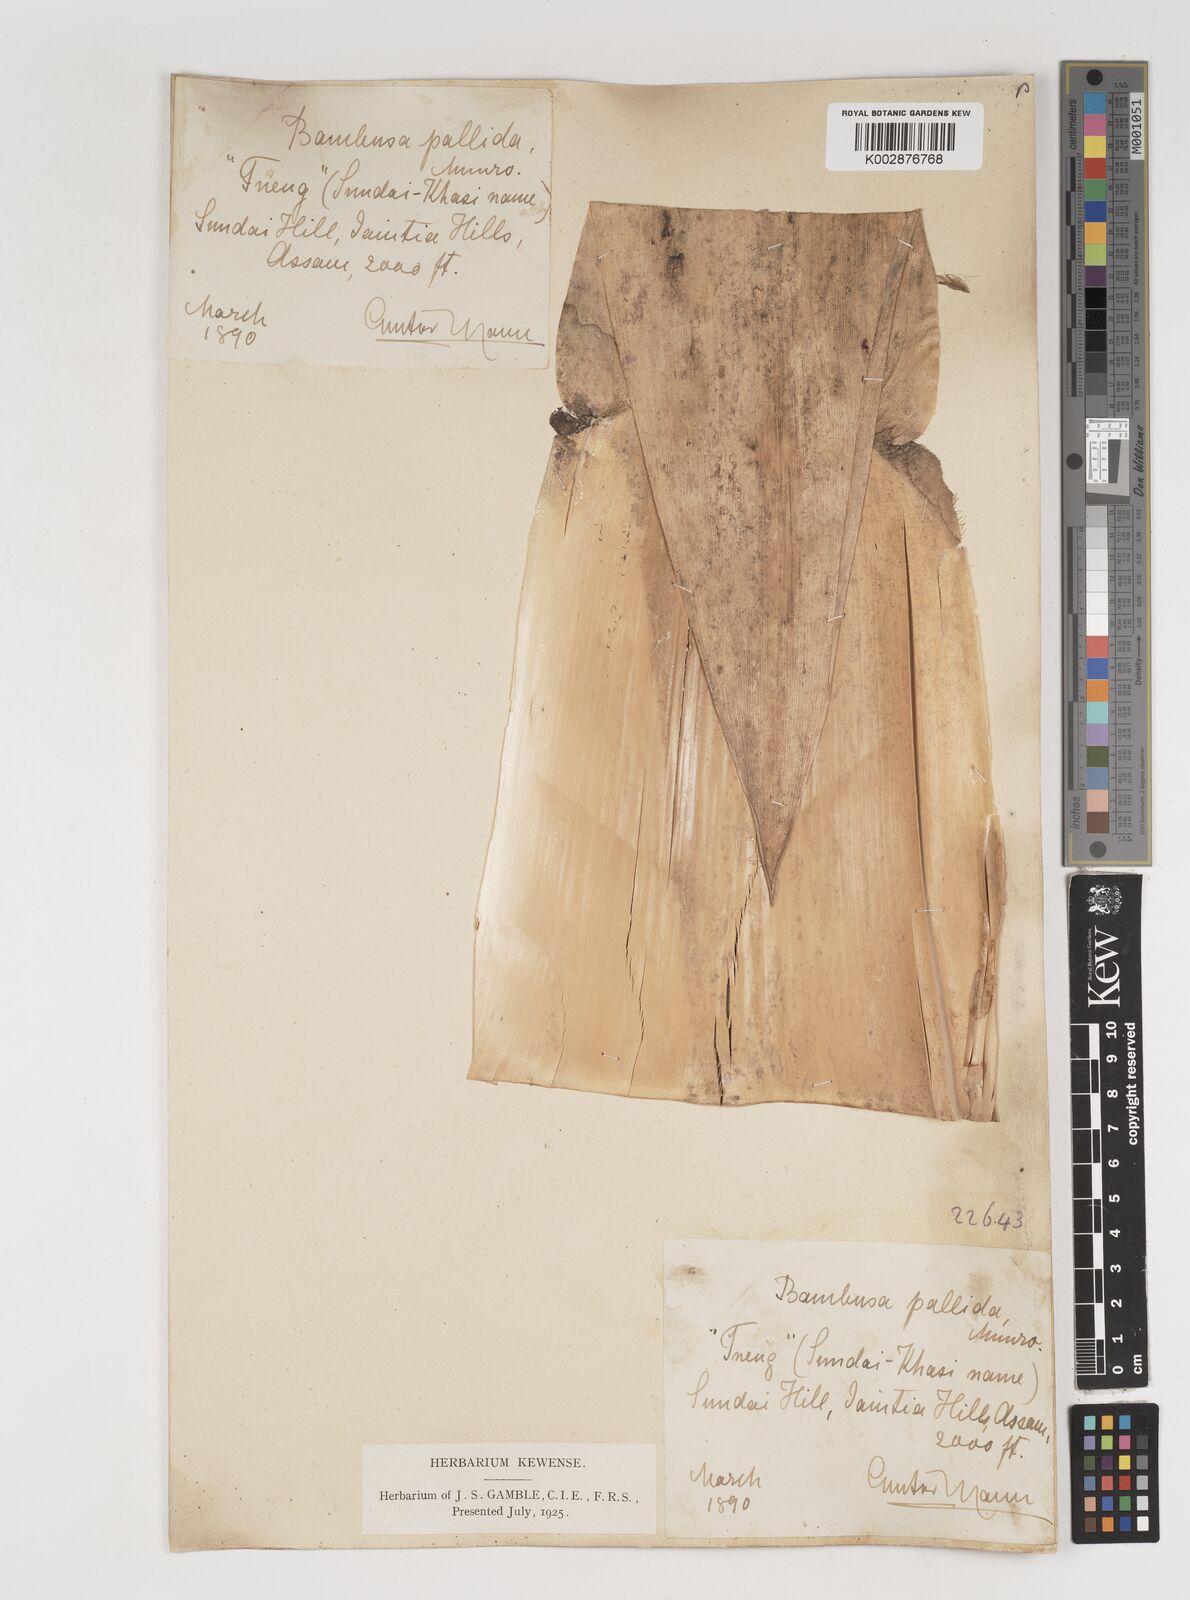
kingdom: Plantae
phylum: Tracheophyta
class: Liliopsida
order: Poales
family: Poaceae
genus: Bambusa
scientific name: Bambusa pallida
